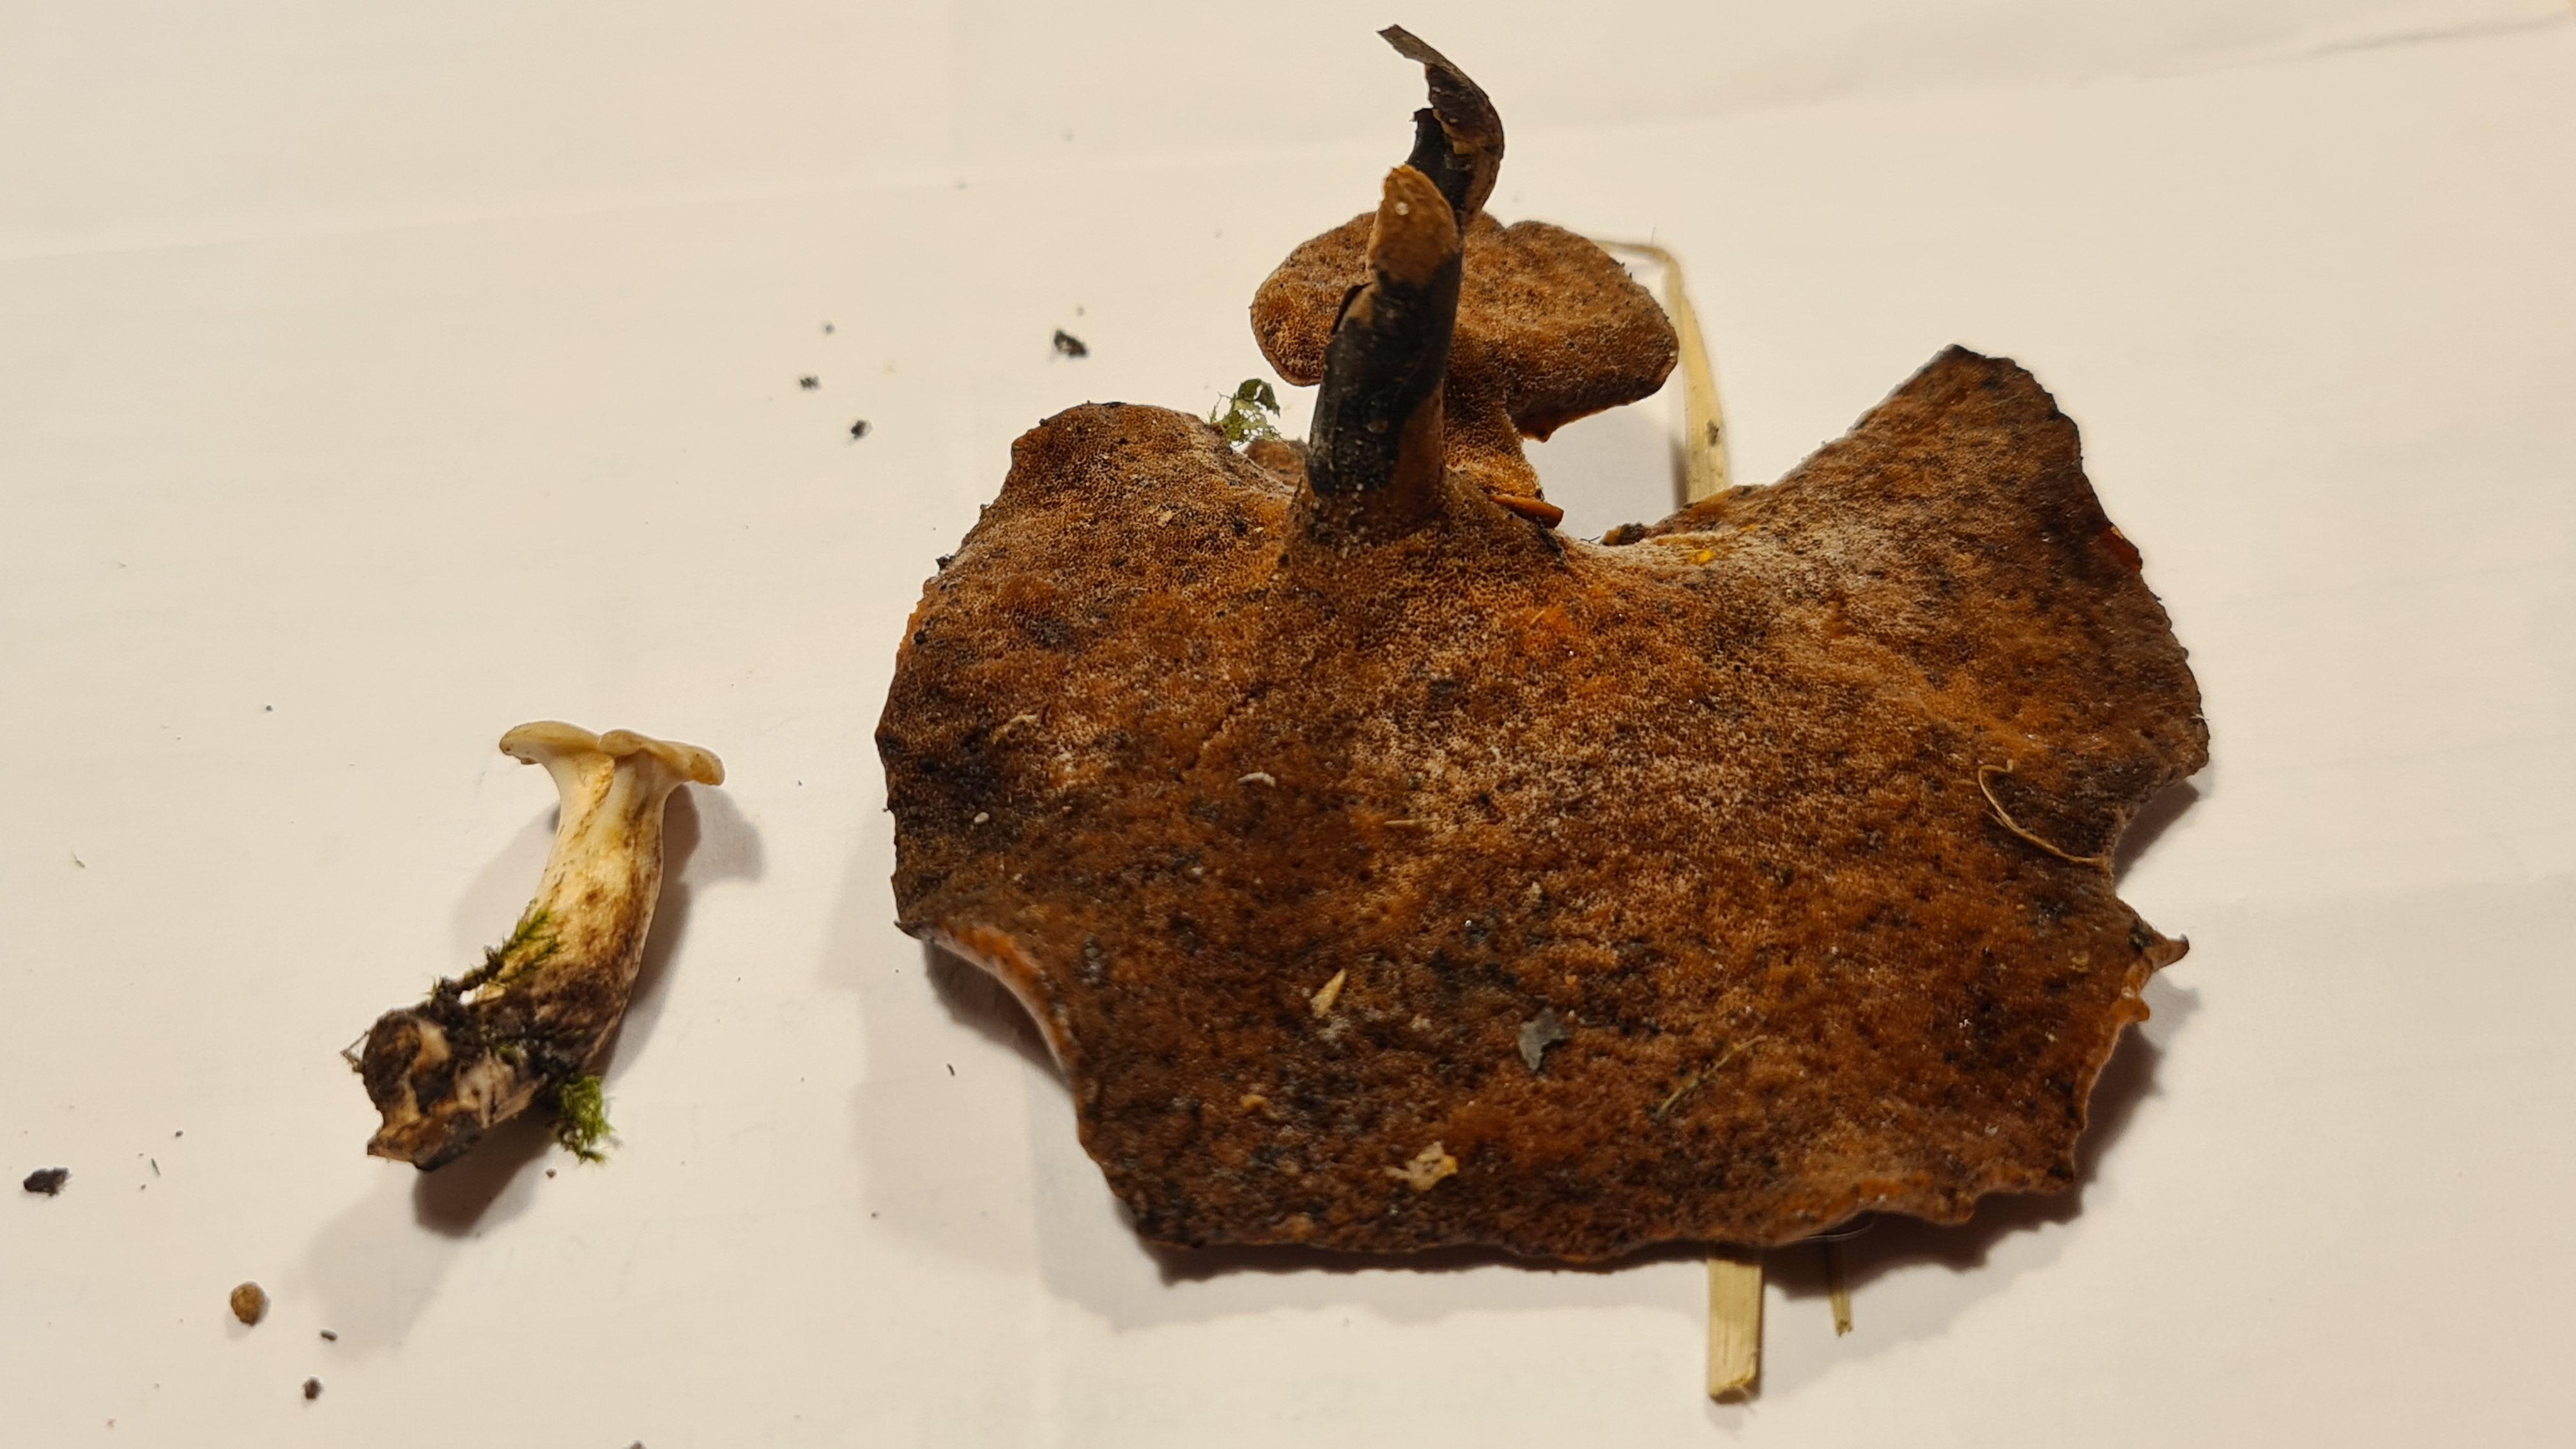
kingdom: Fungi
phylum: Basidiomycota
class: Agaricomycetes
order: Polyporales
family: Polyporaceae
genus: Cerioporus
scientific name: Cerioporus varius
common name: foranderlig stilkporesvamp
